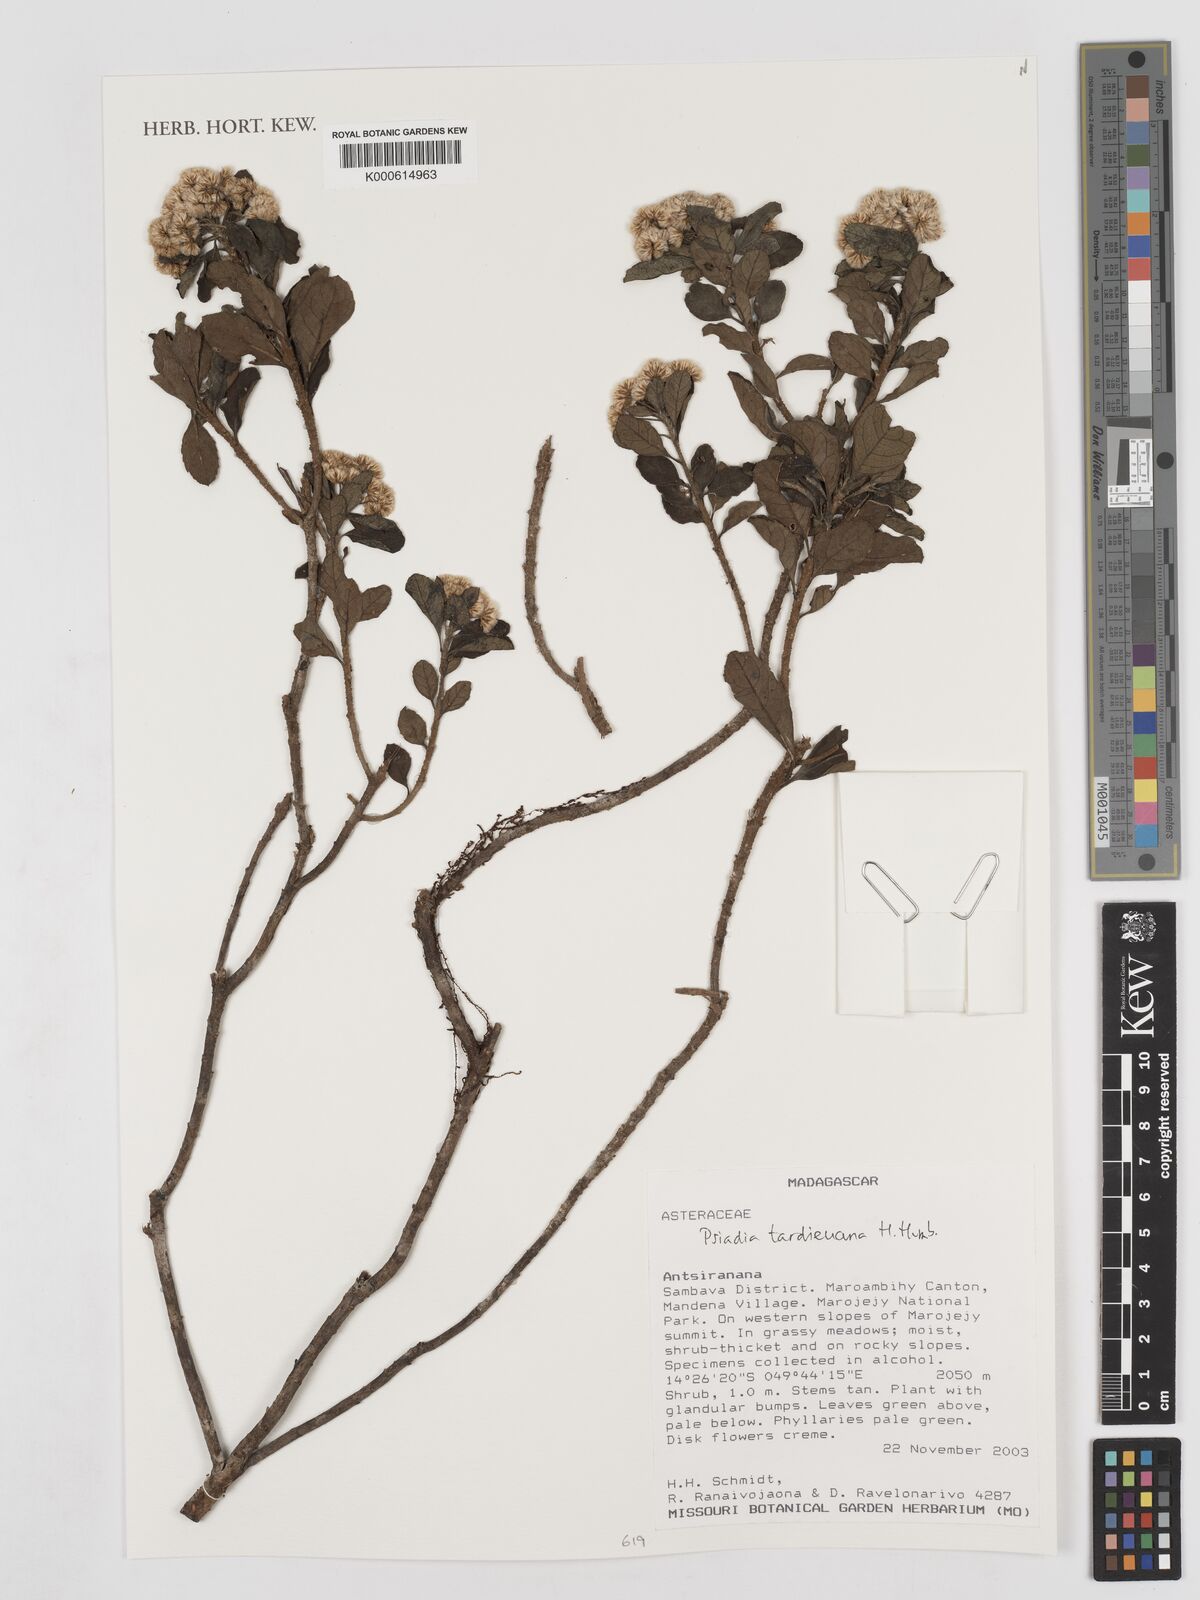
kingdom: Plantae
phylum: Tracheophyta
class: Magnoliopsida
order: Asterales
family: Asteraceae
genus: Psiadia
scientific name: Psiadia tardieuana
